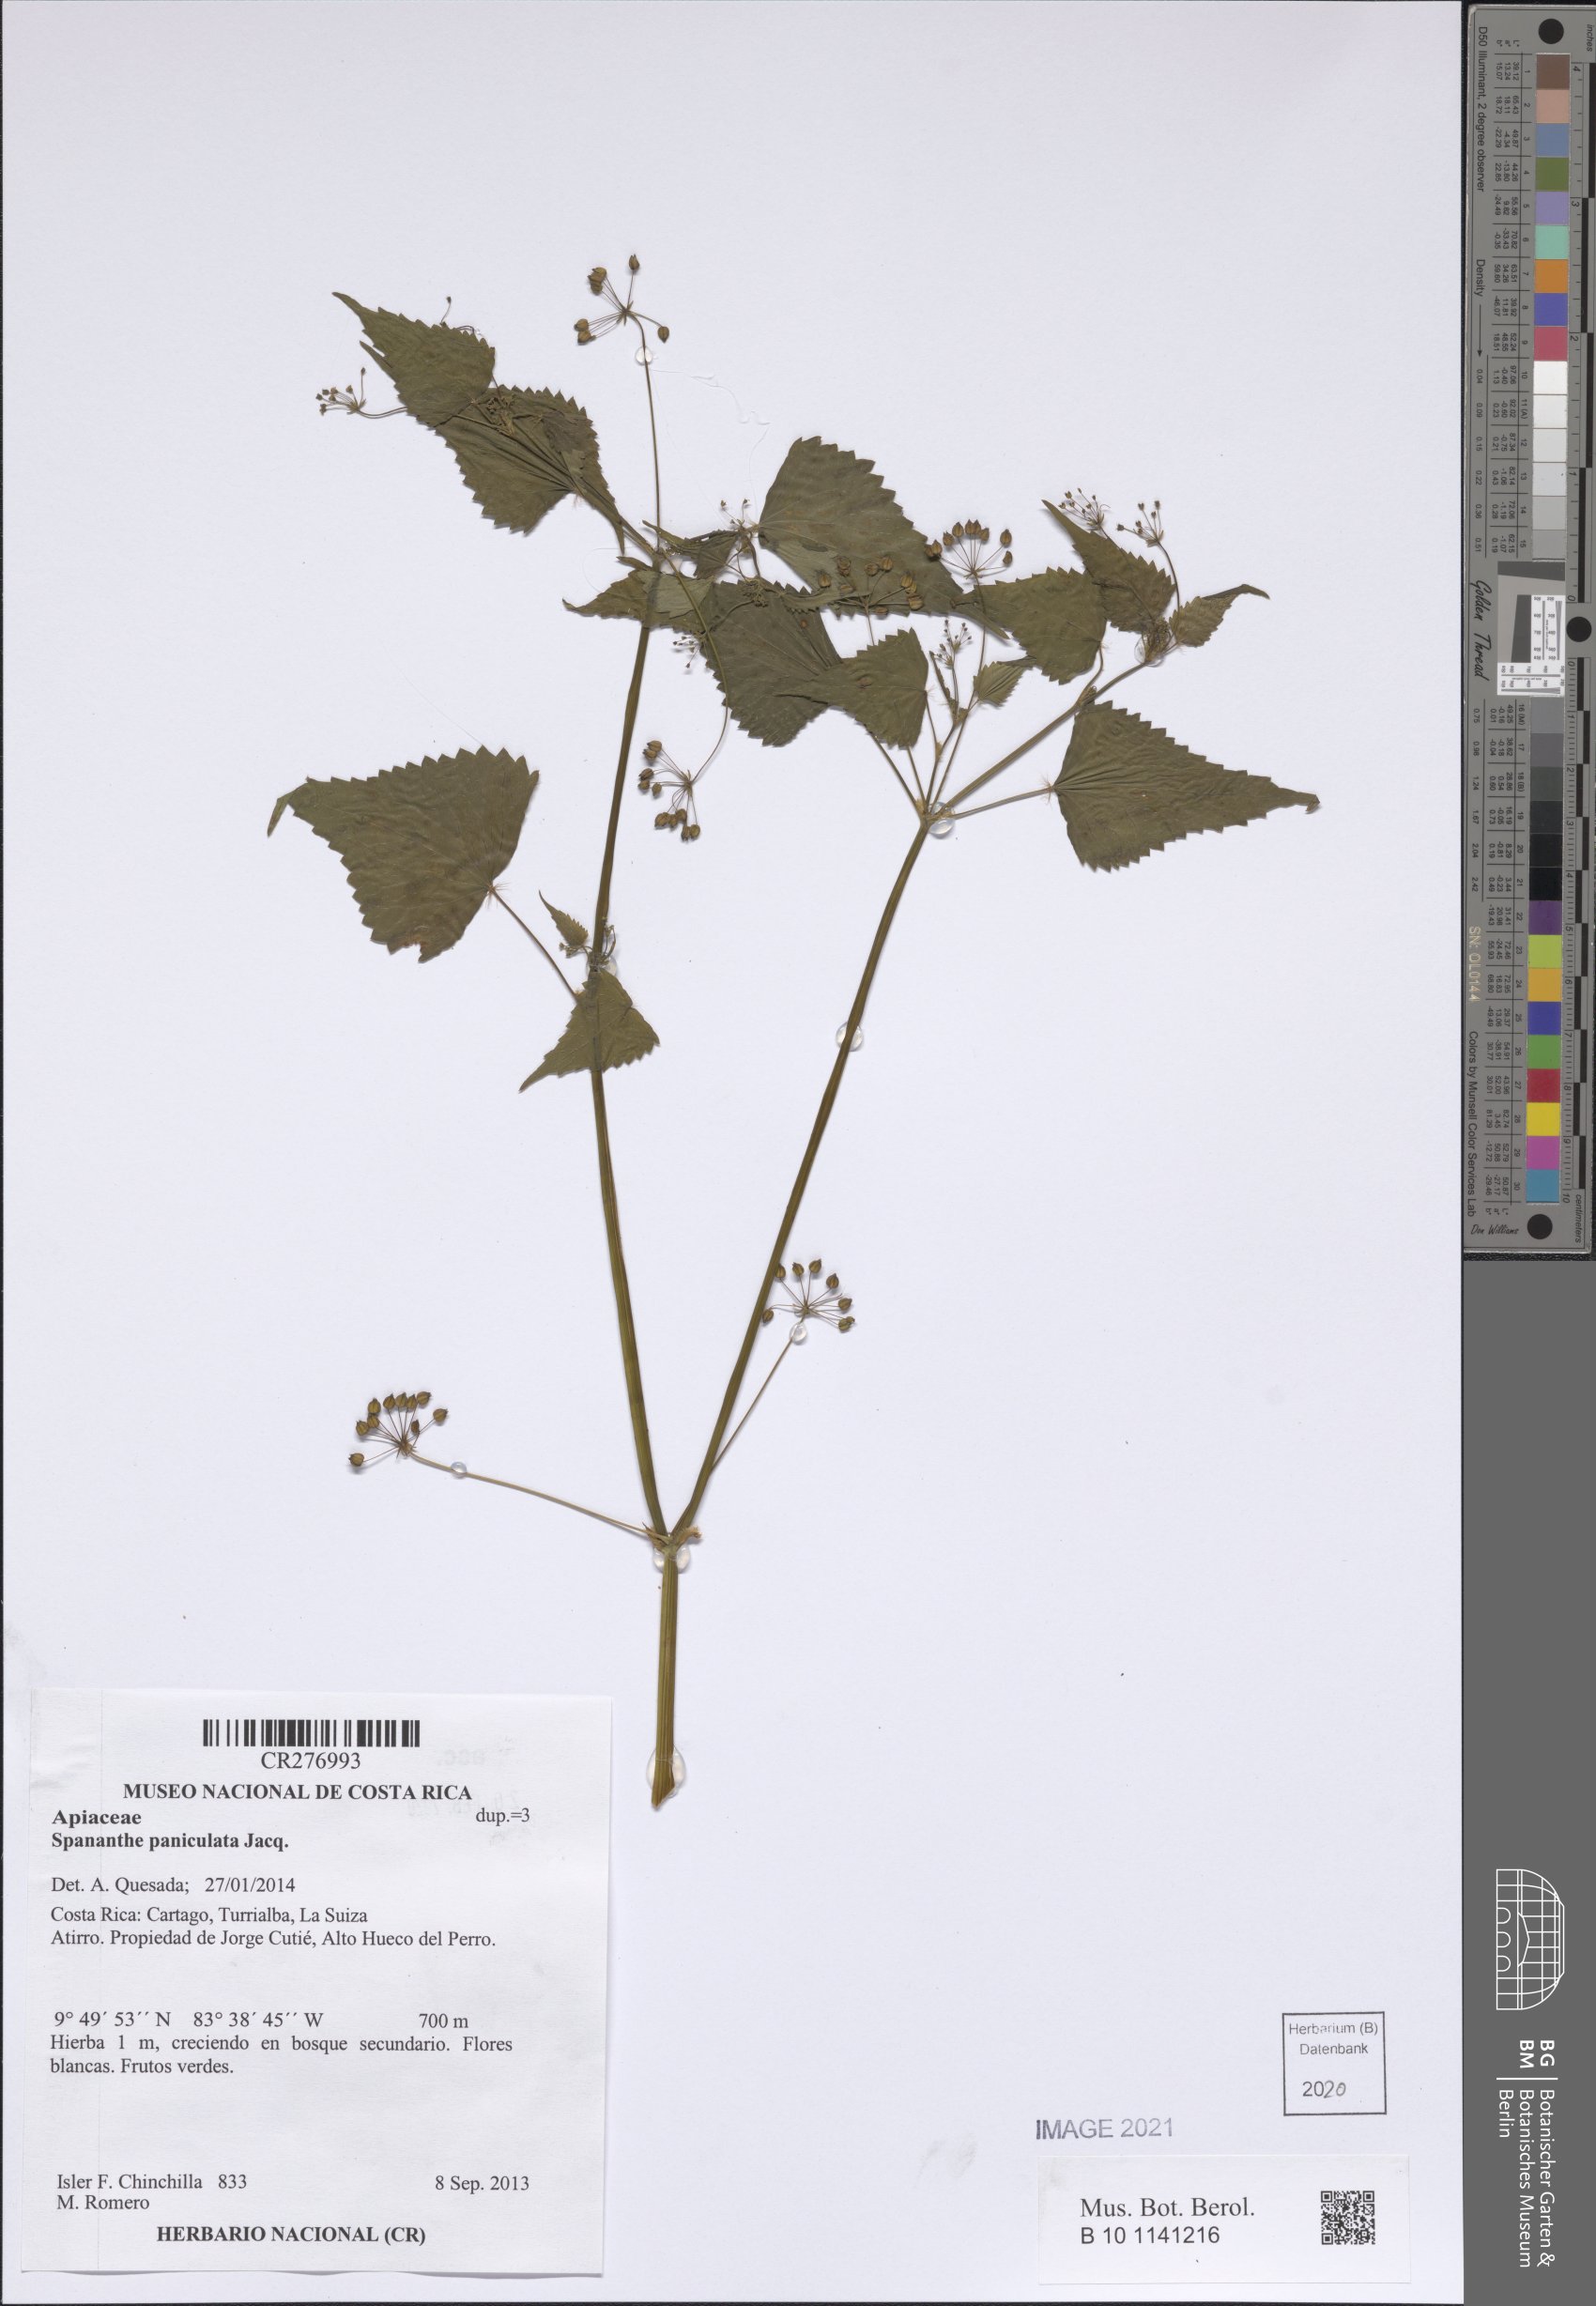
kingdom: Plantae
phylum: Tracheophyta
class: Magnoliopsida
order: Apiales
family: Apiaceae
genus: Spananthe
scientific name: Spananthe paniculata
